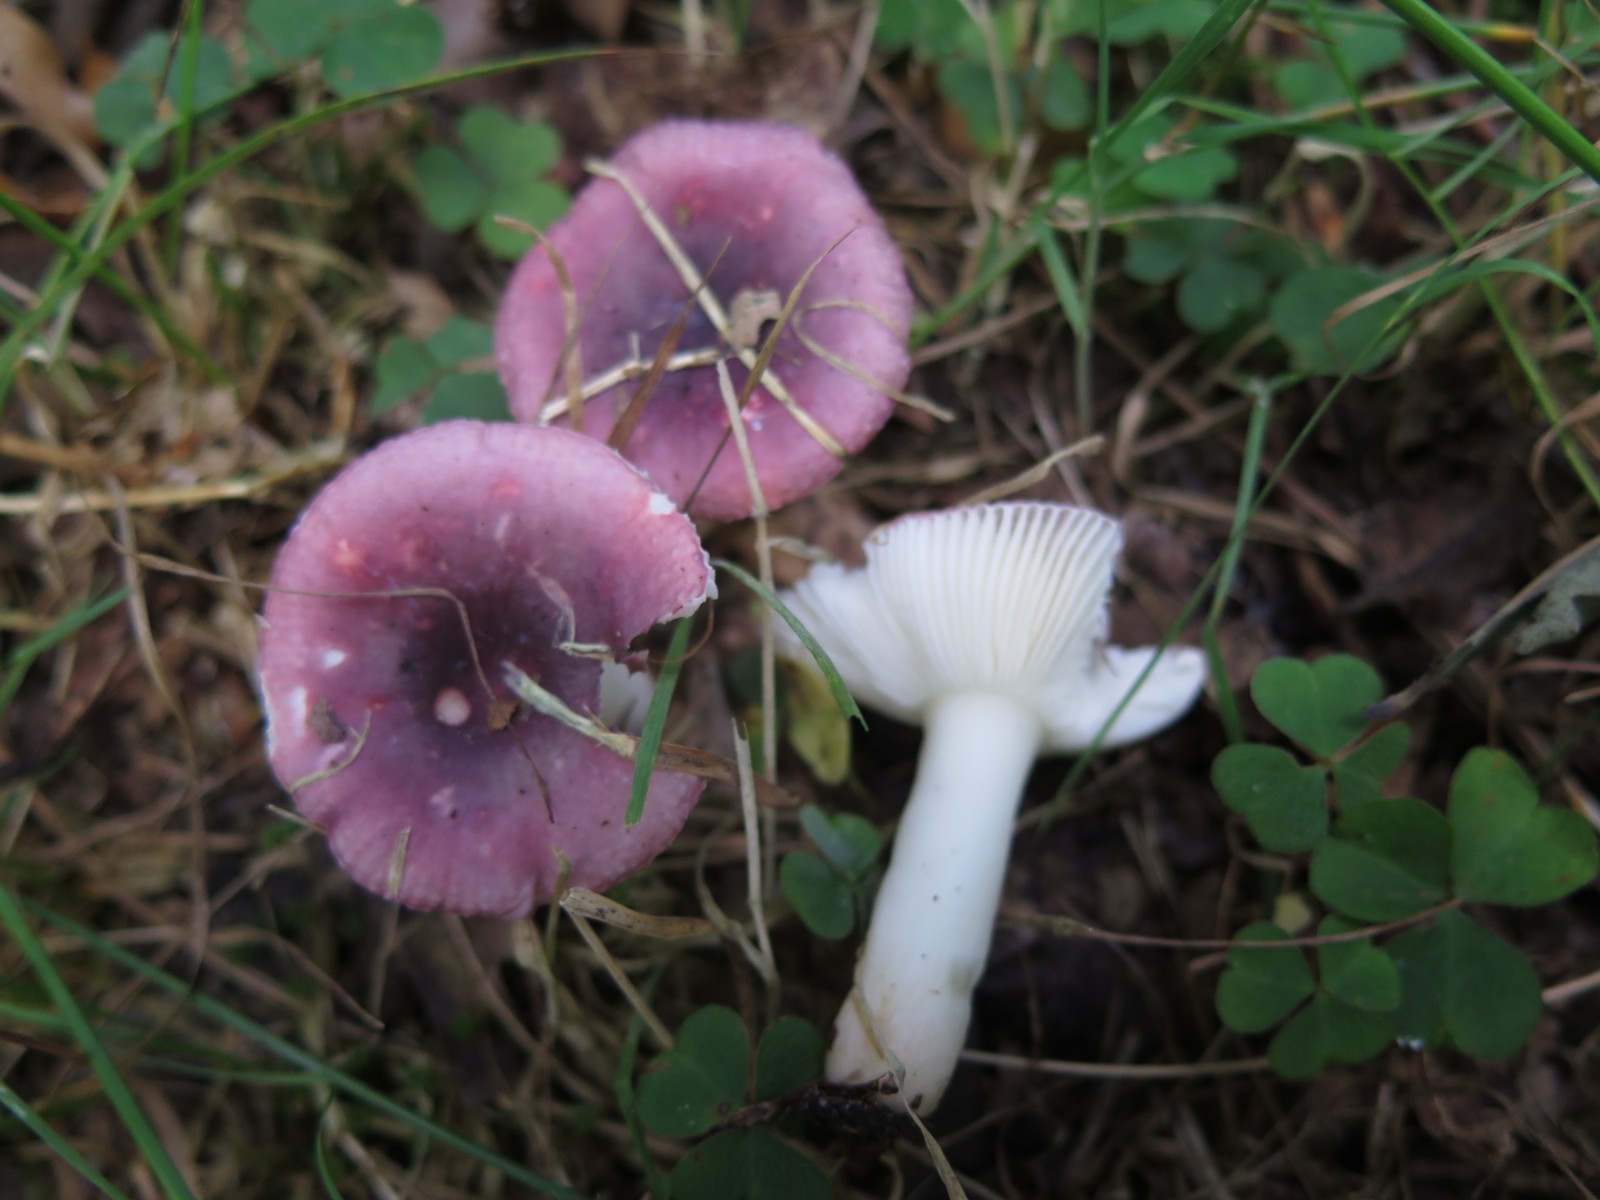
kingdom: Fungi
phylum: Basidiomycota
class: Agaricomycetes
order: Russulales
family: Russulaceae
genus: Russula
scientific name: Russula
